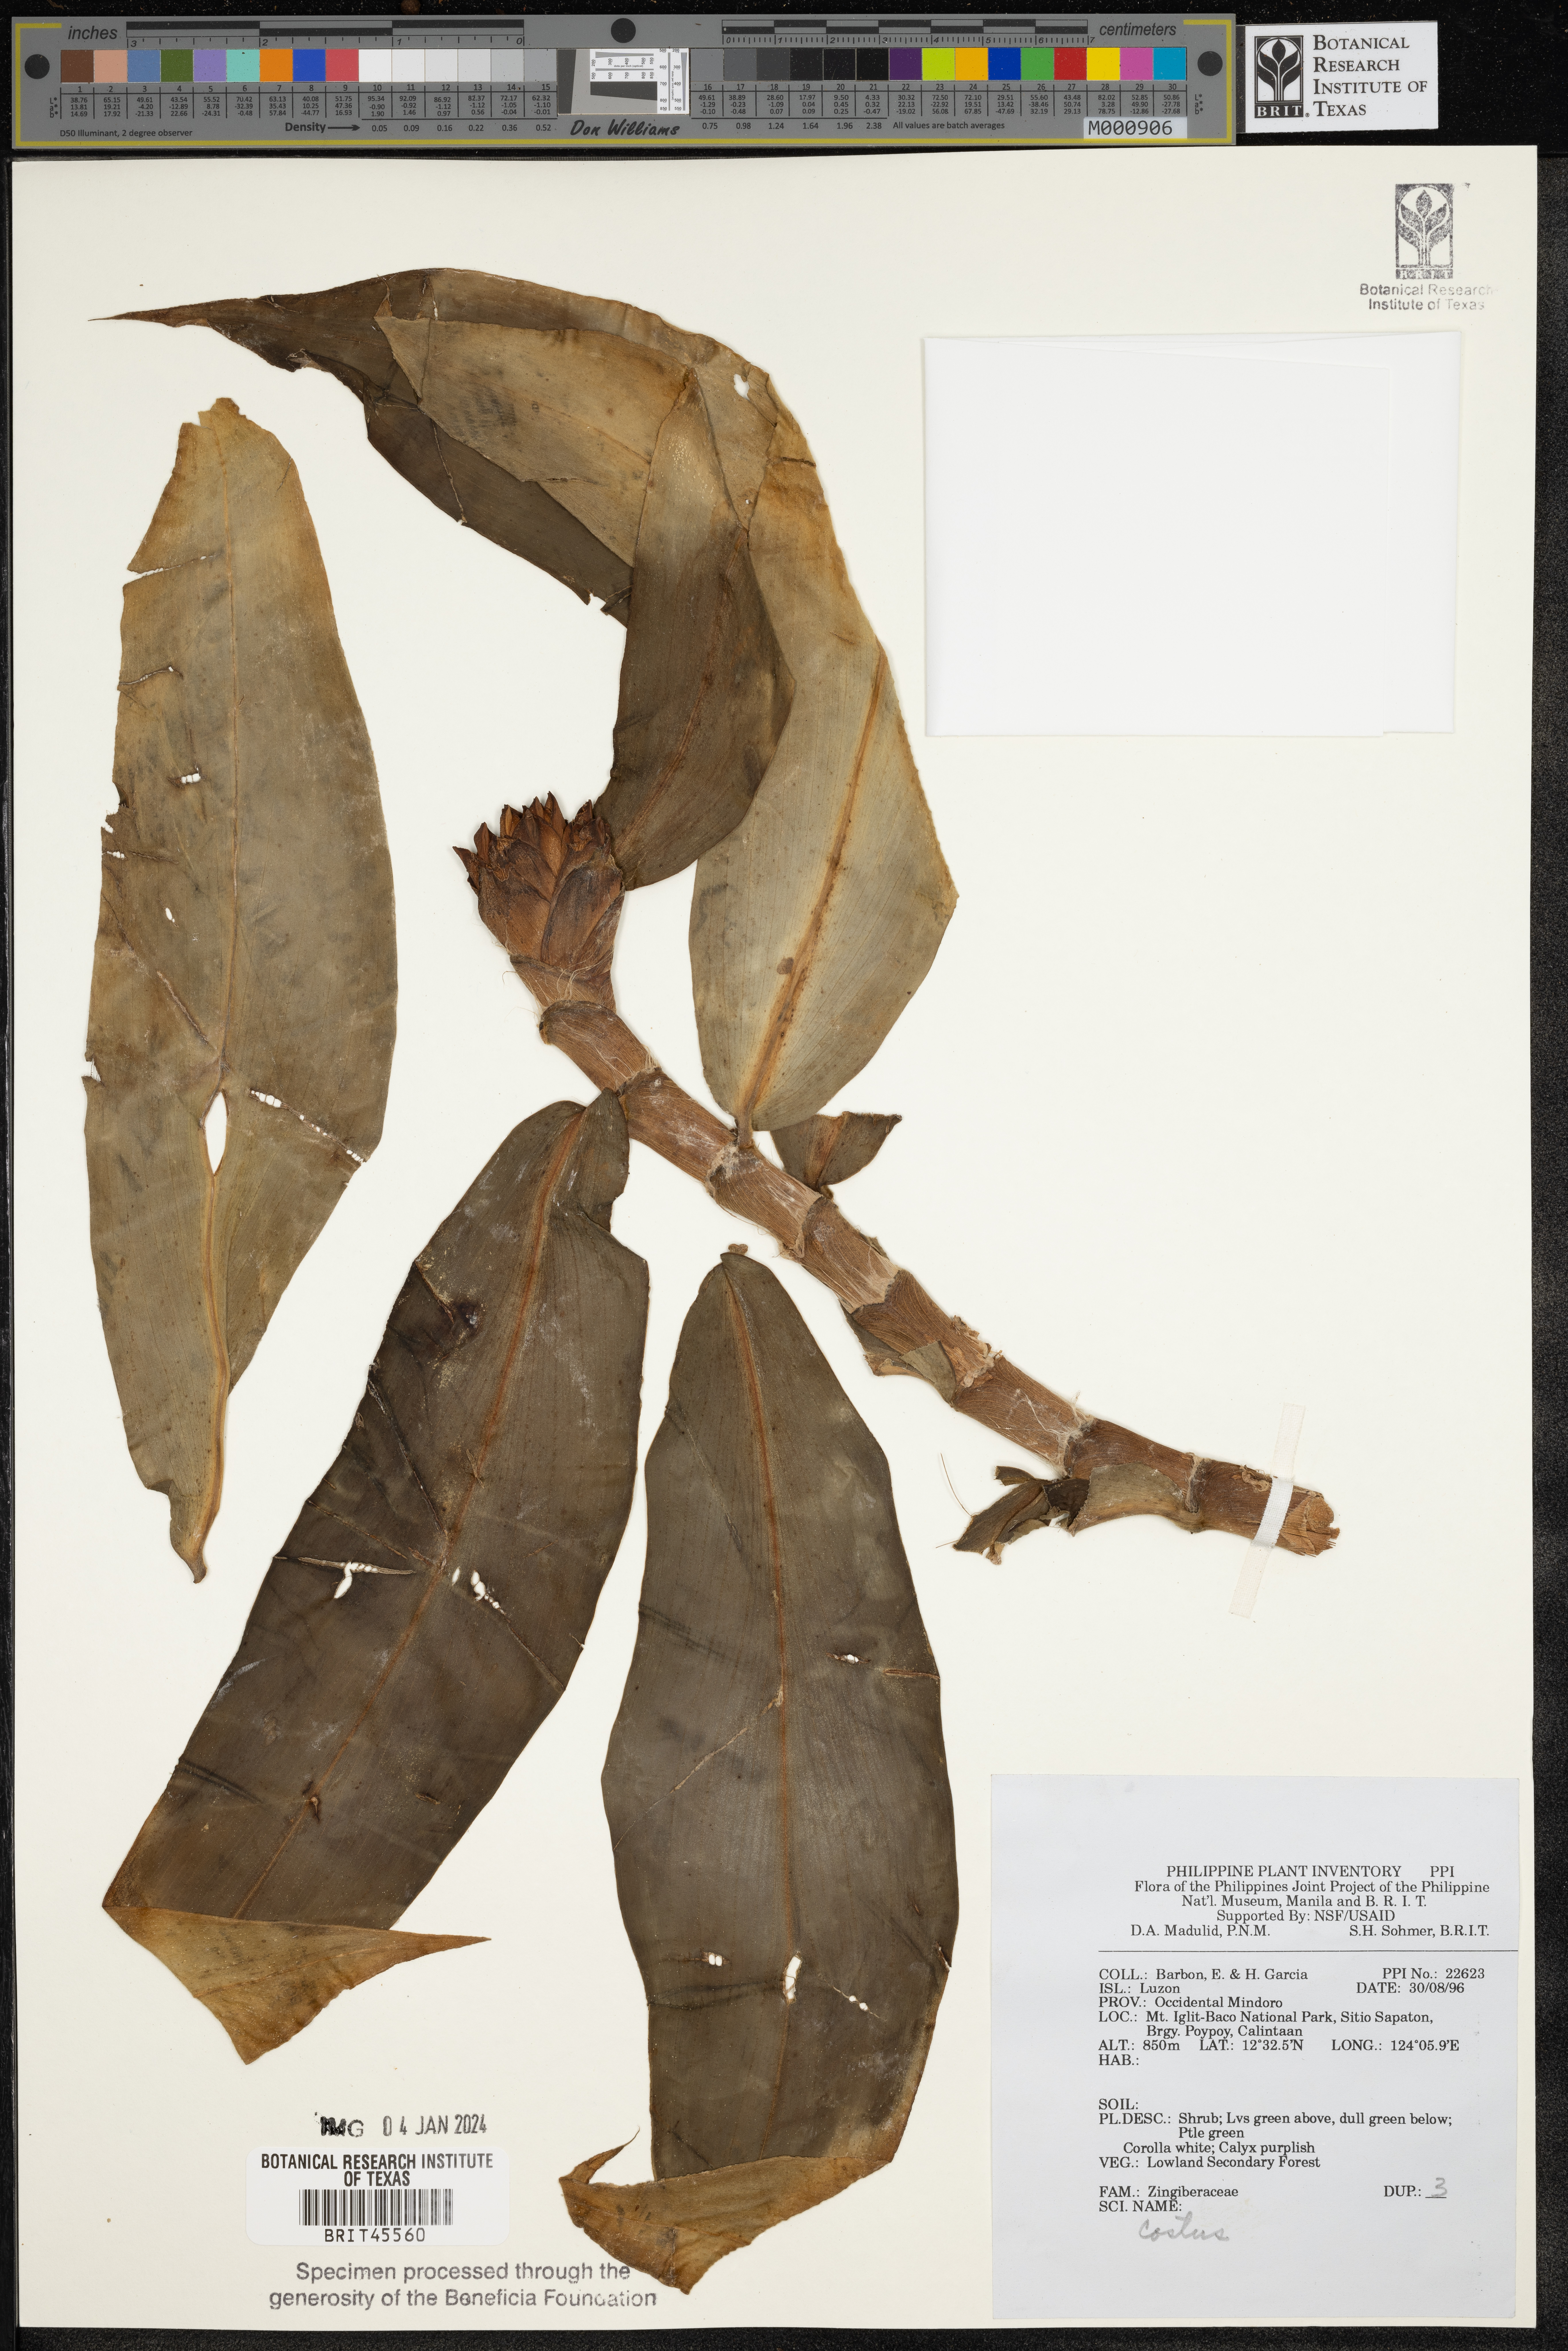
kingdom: Plantae
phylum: Tracheophyta
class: Liliopsida
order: Zingiberales
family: Costaceae
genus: Costus
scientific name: Costus
